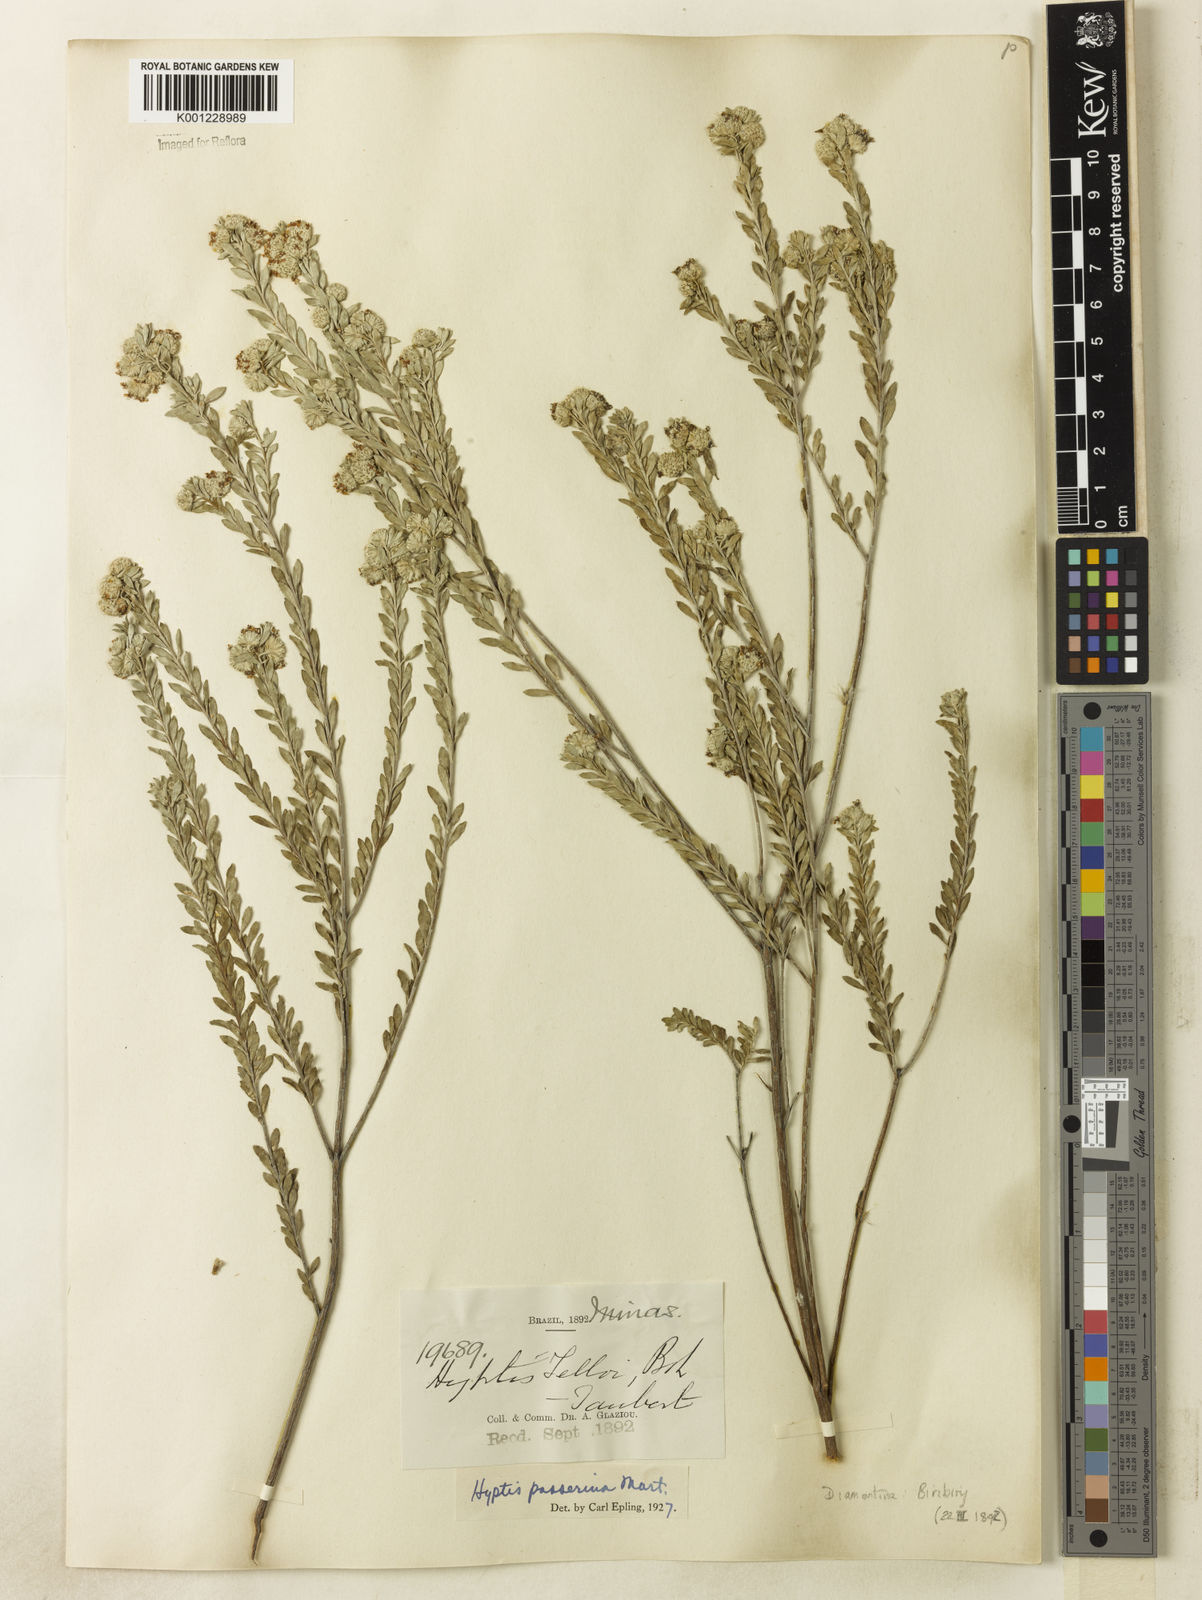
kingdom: Plantae
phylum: Tracheophyta
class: Magnoliopsida
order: Lamiales
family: Lamiaceae
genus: Hyptis
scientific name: Hyptis passerina
